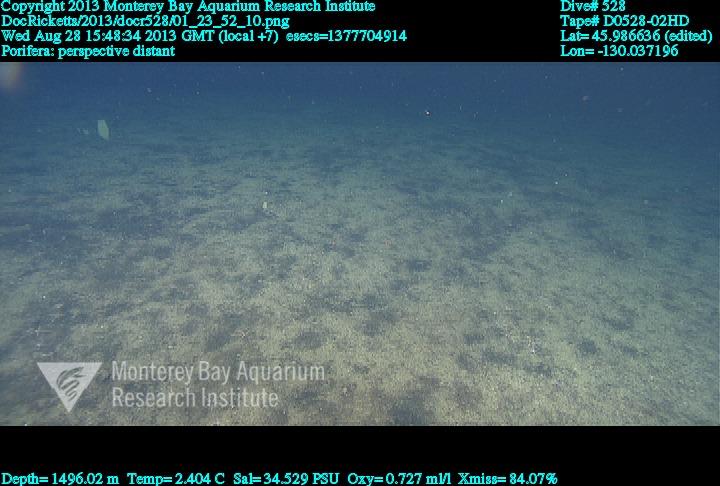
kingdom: Animalia
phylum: Porifera
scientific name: Porifera
